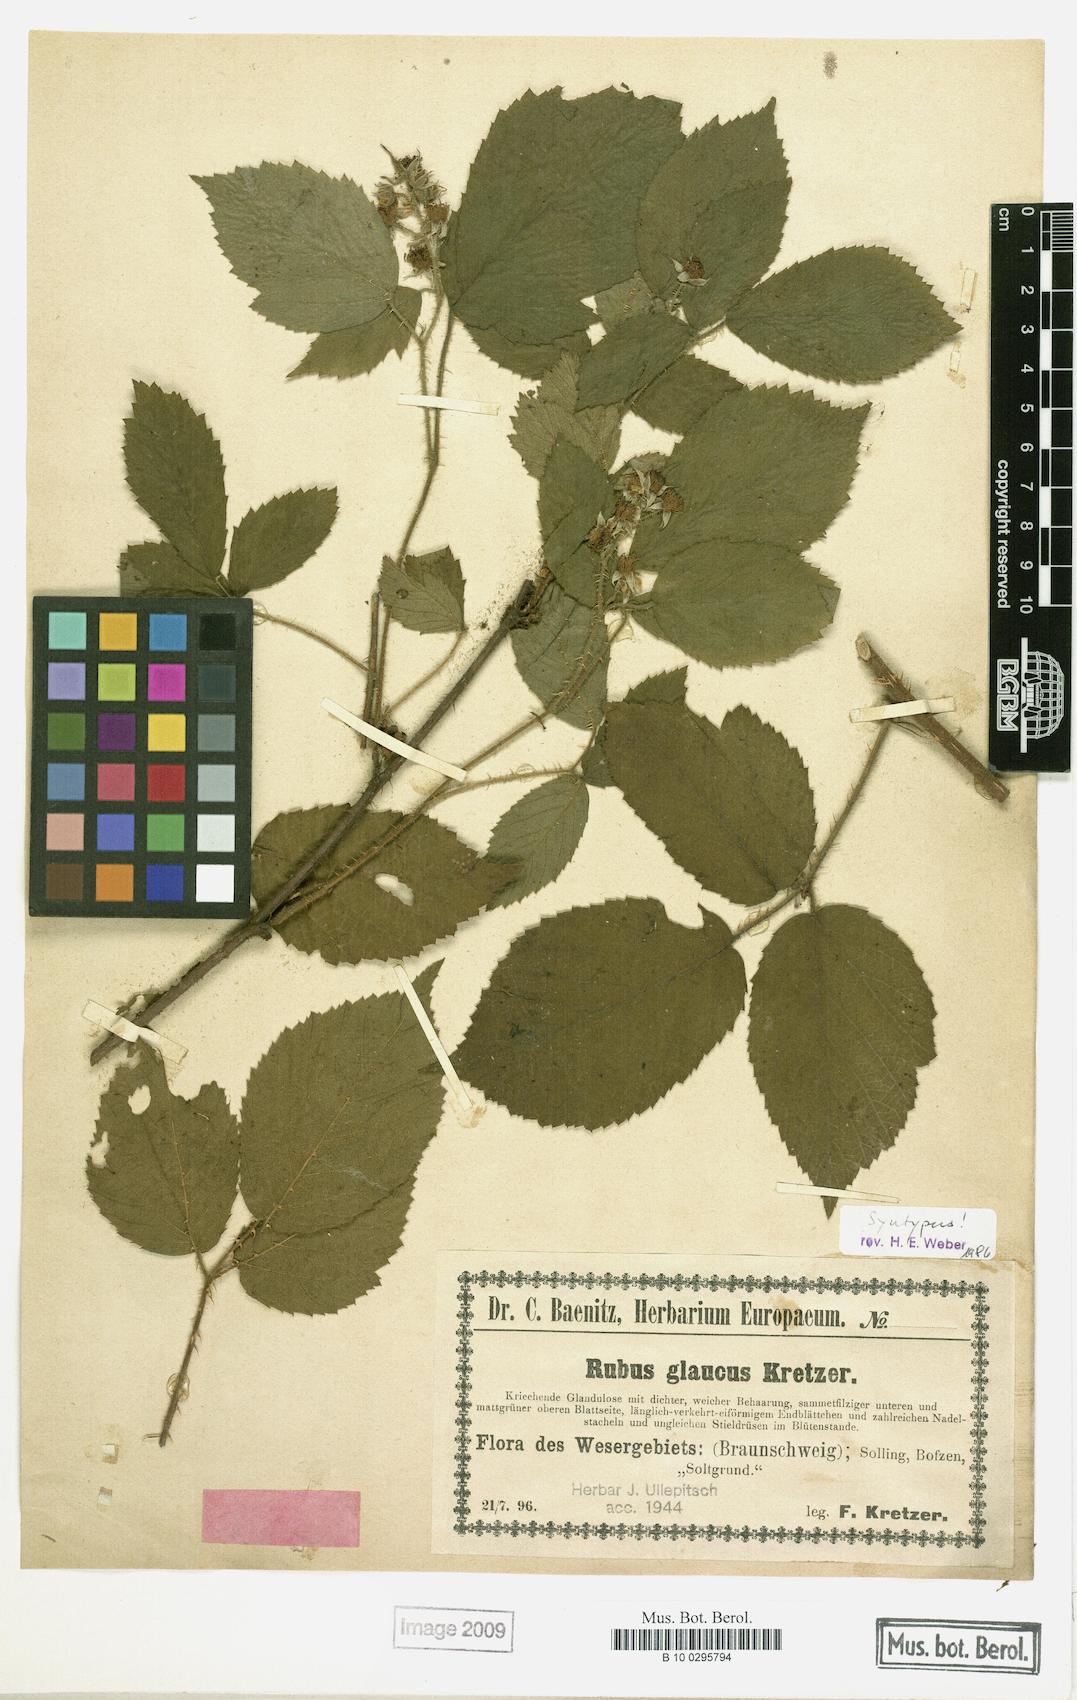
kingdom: Plantae
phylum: Tracheophyta
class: Magnoliopsida
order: Rosales
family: Rosaceae
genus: Rubus
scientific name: Rubus glaucus
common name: Andean blackberry
